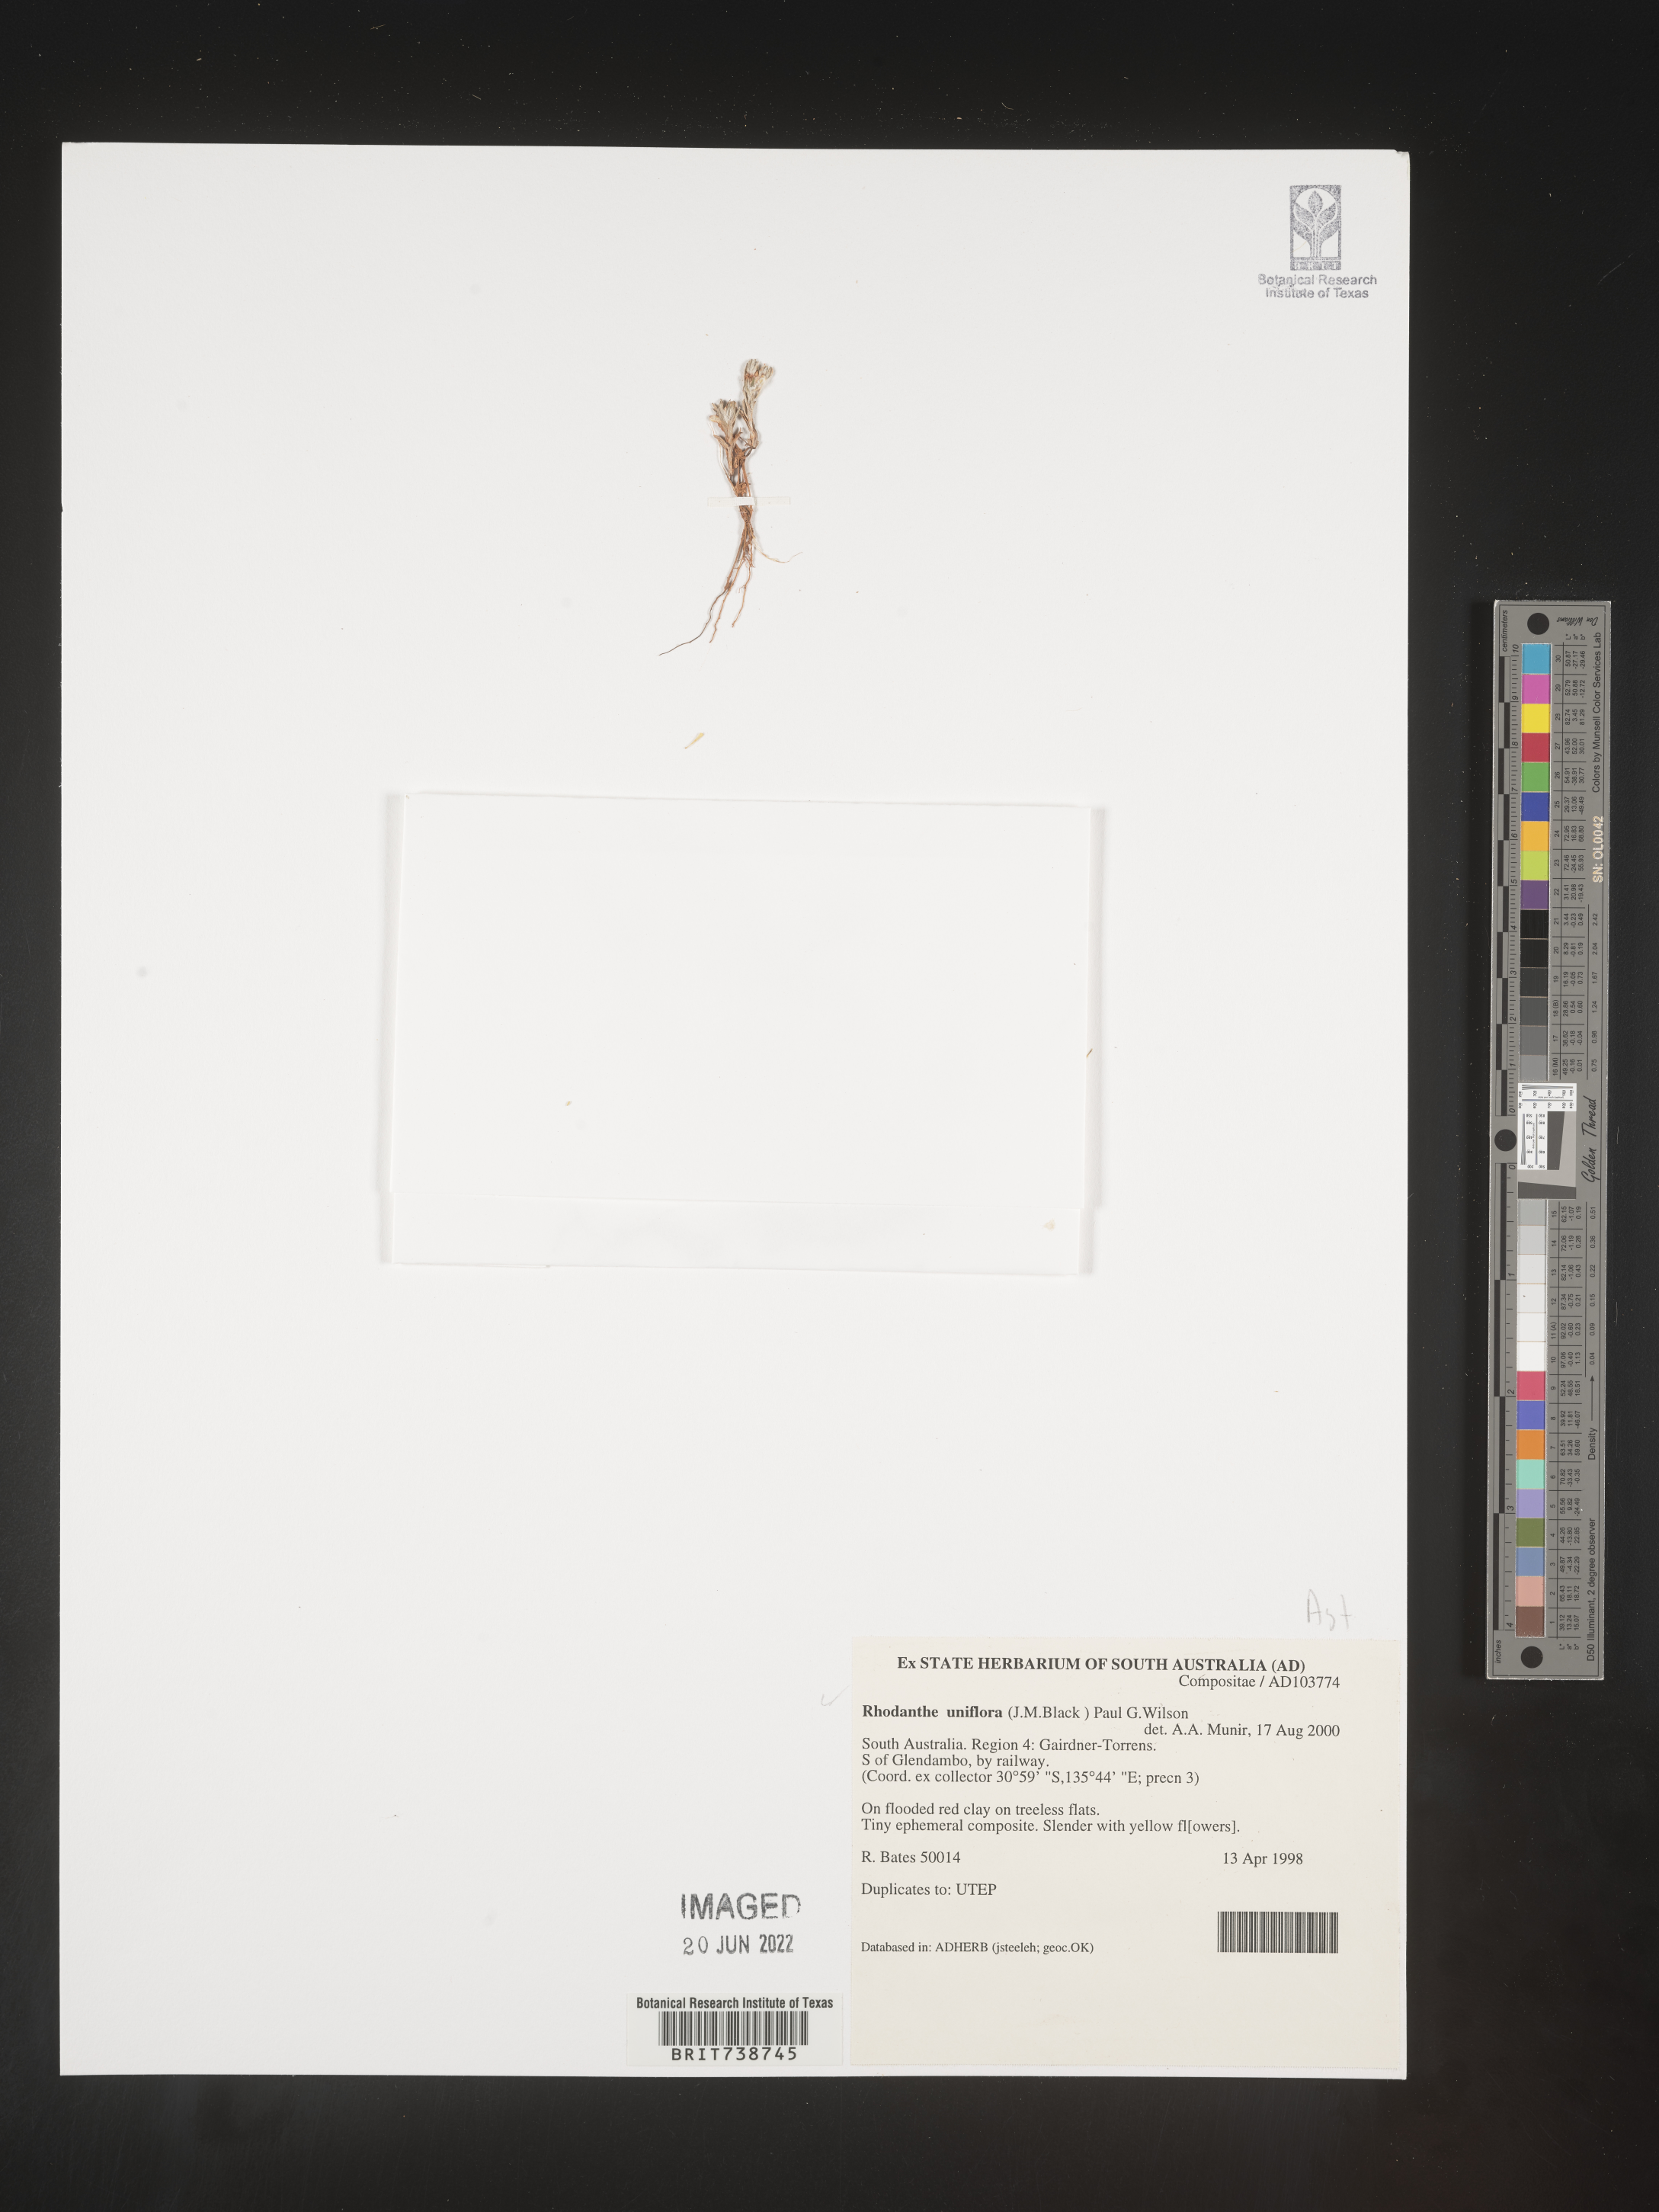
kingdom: Plantae
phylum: Tracheophyta
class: Magnoliopsida
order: Asterales
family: Asteraceae
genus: Rhodanthe
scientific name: Rhodanthe
